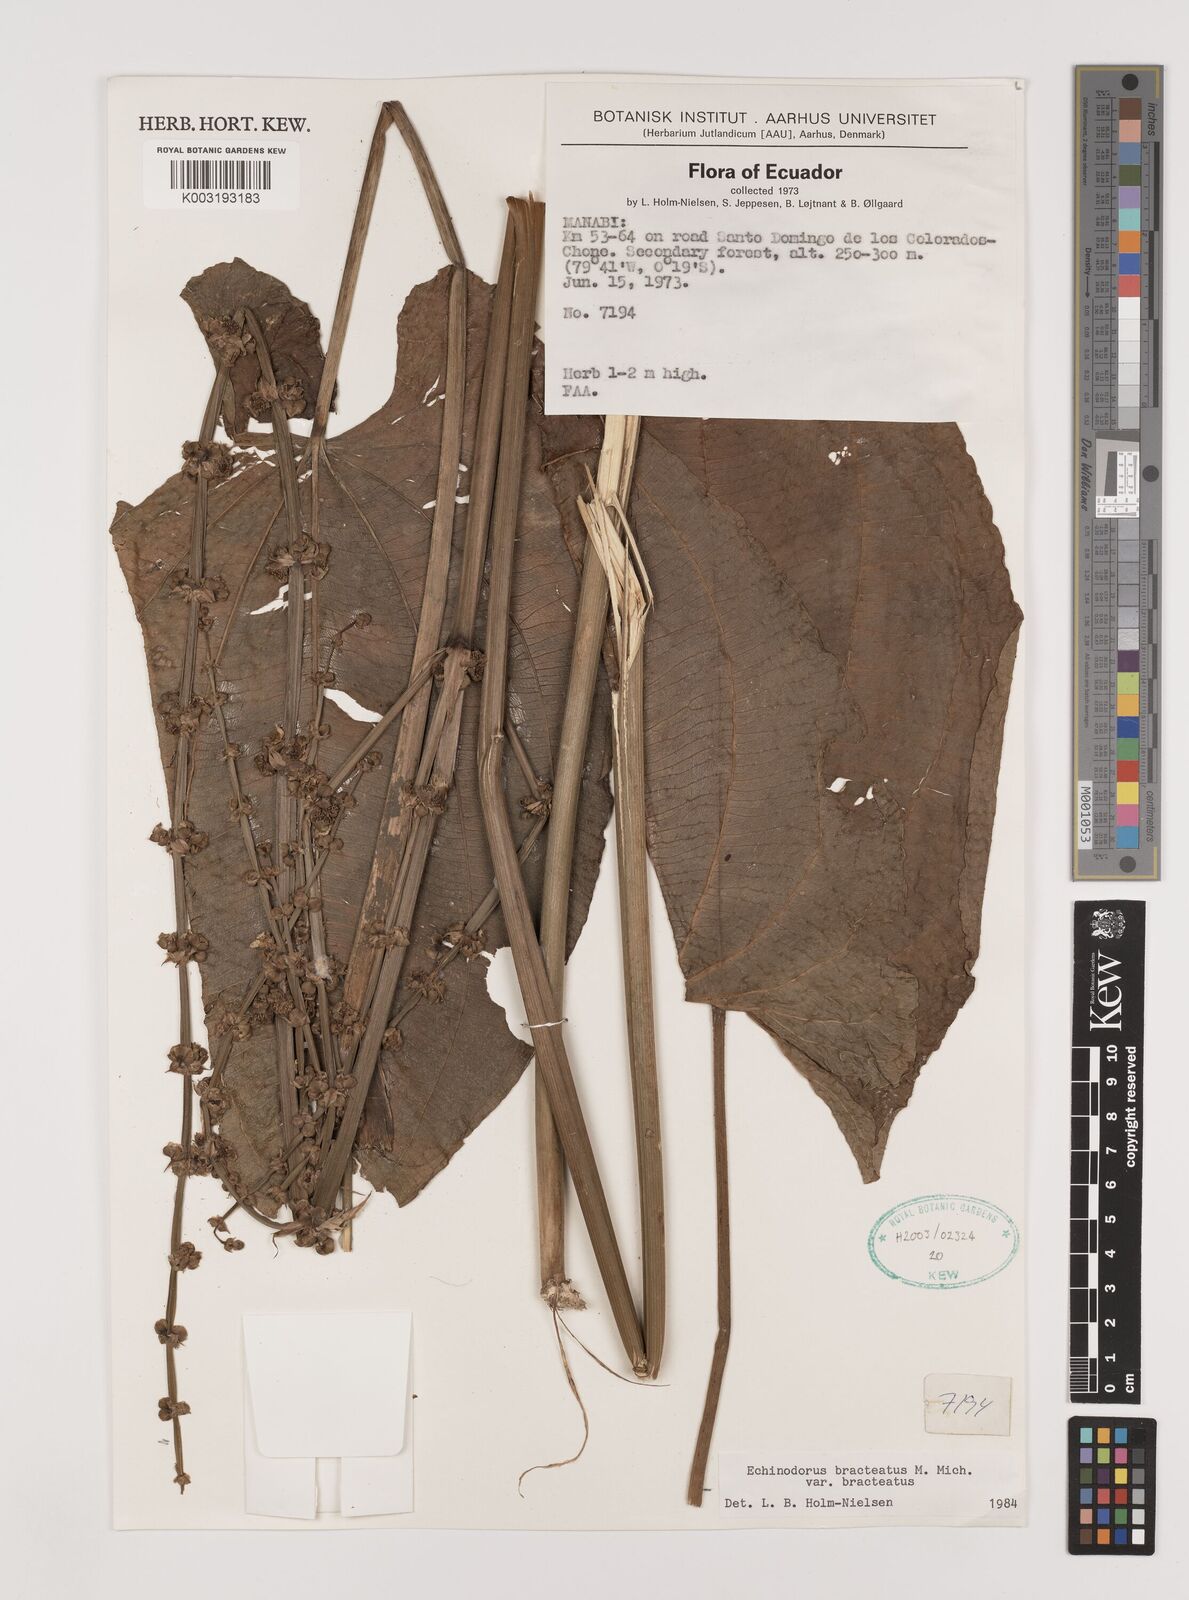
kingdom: Plantae
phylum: Tracheophyta
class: Liliopsida
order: Alismatales
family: Alismataceae
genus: Aquarius
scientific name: Aquarius bracteatus
